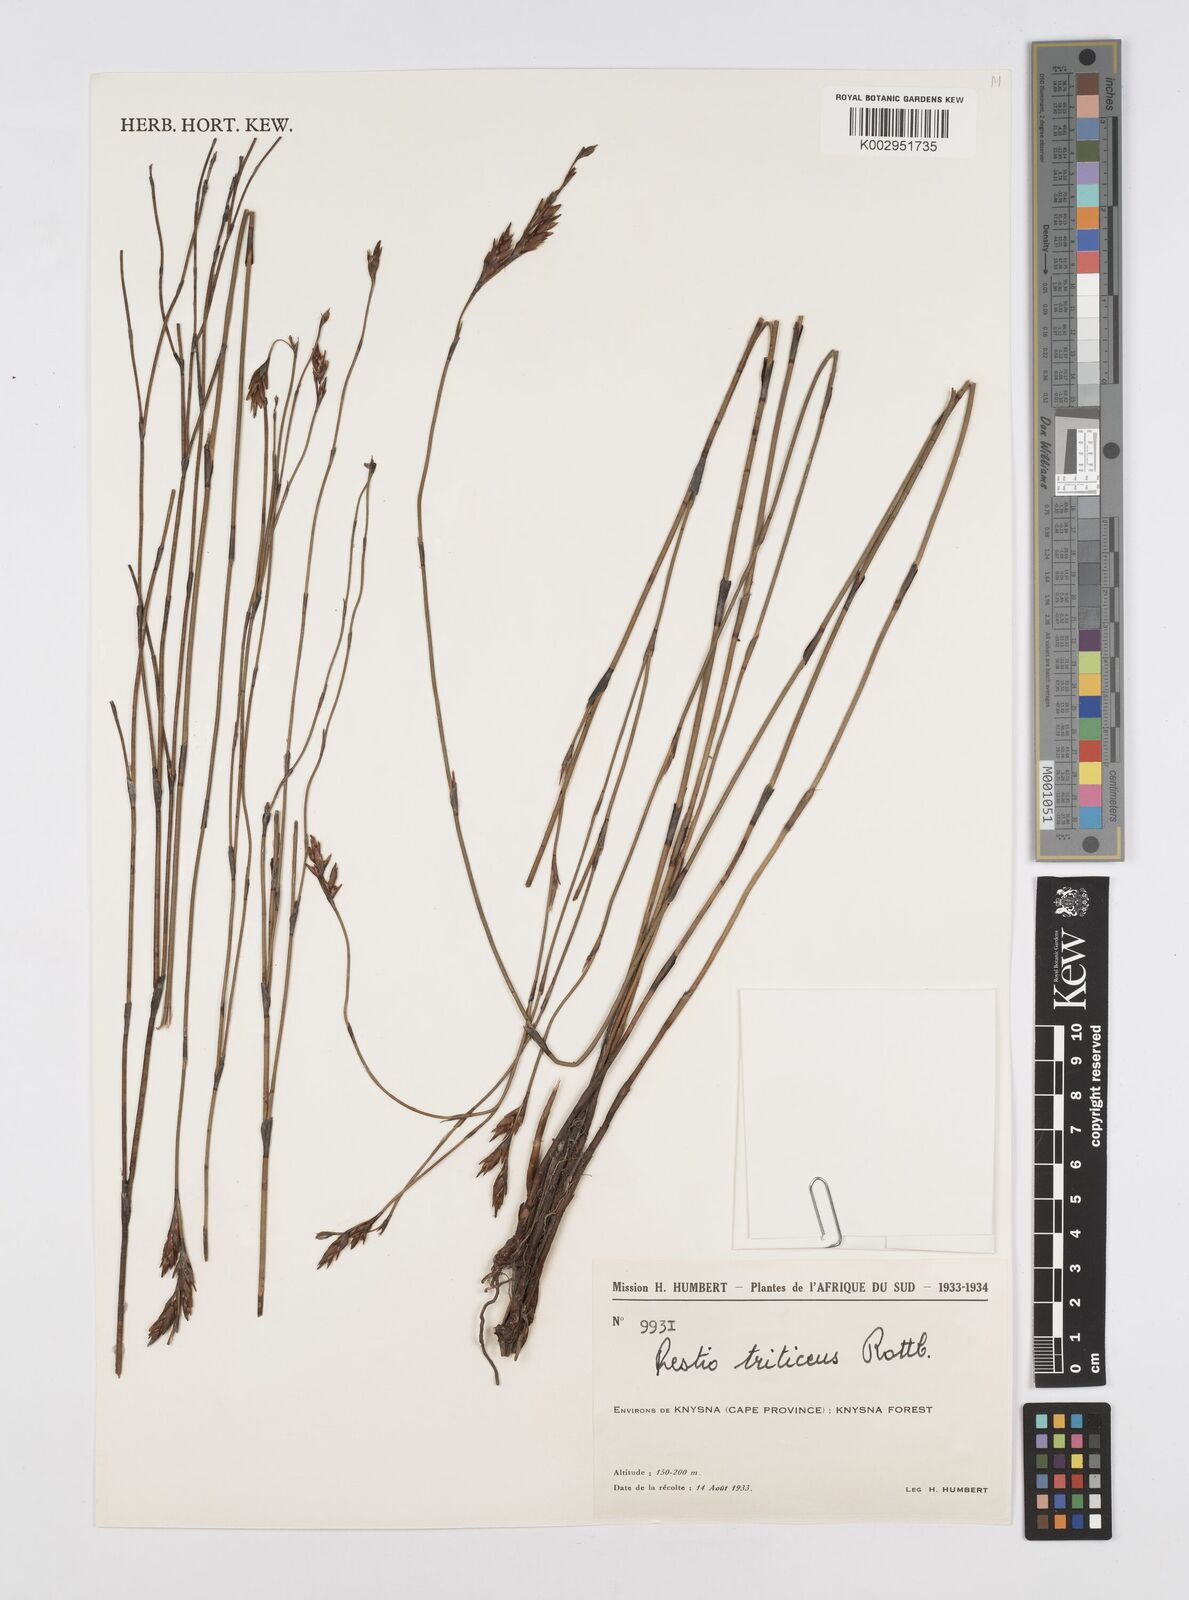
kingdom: Plantae
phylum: Tracheophyta
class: Liliopsida
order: Poales
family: Restionaceae
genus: Restio
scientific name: Restio triticeus
